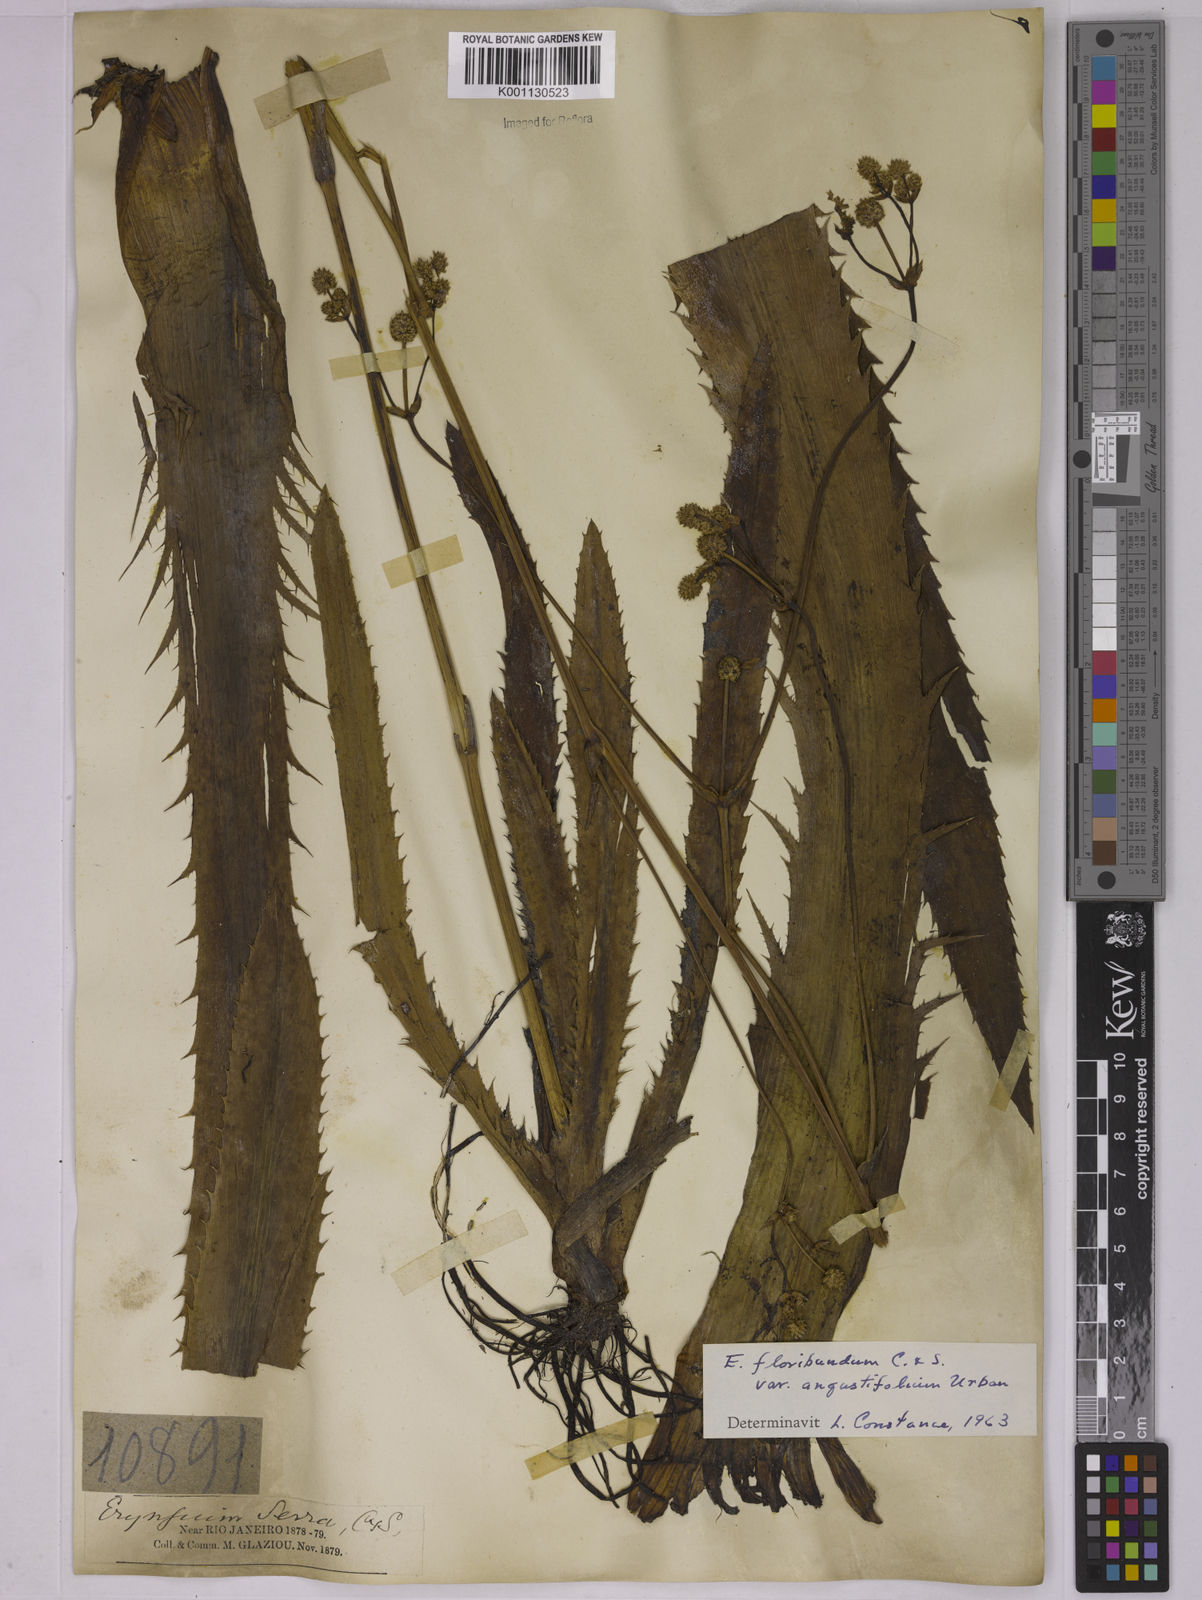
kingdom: Plantae
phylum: Tracheophyta
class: Magnoliopsida
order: Apiales
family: Apiaceae
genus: Eryngium
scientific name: Eryngium floribundum
